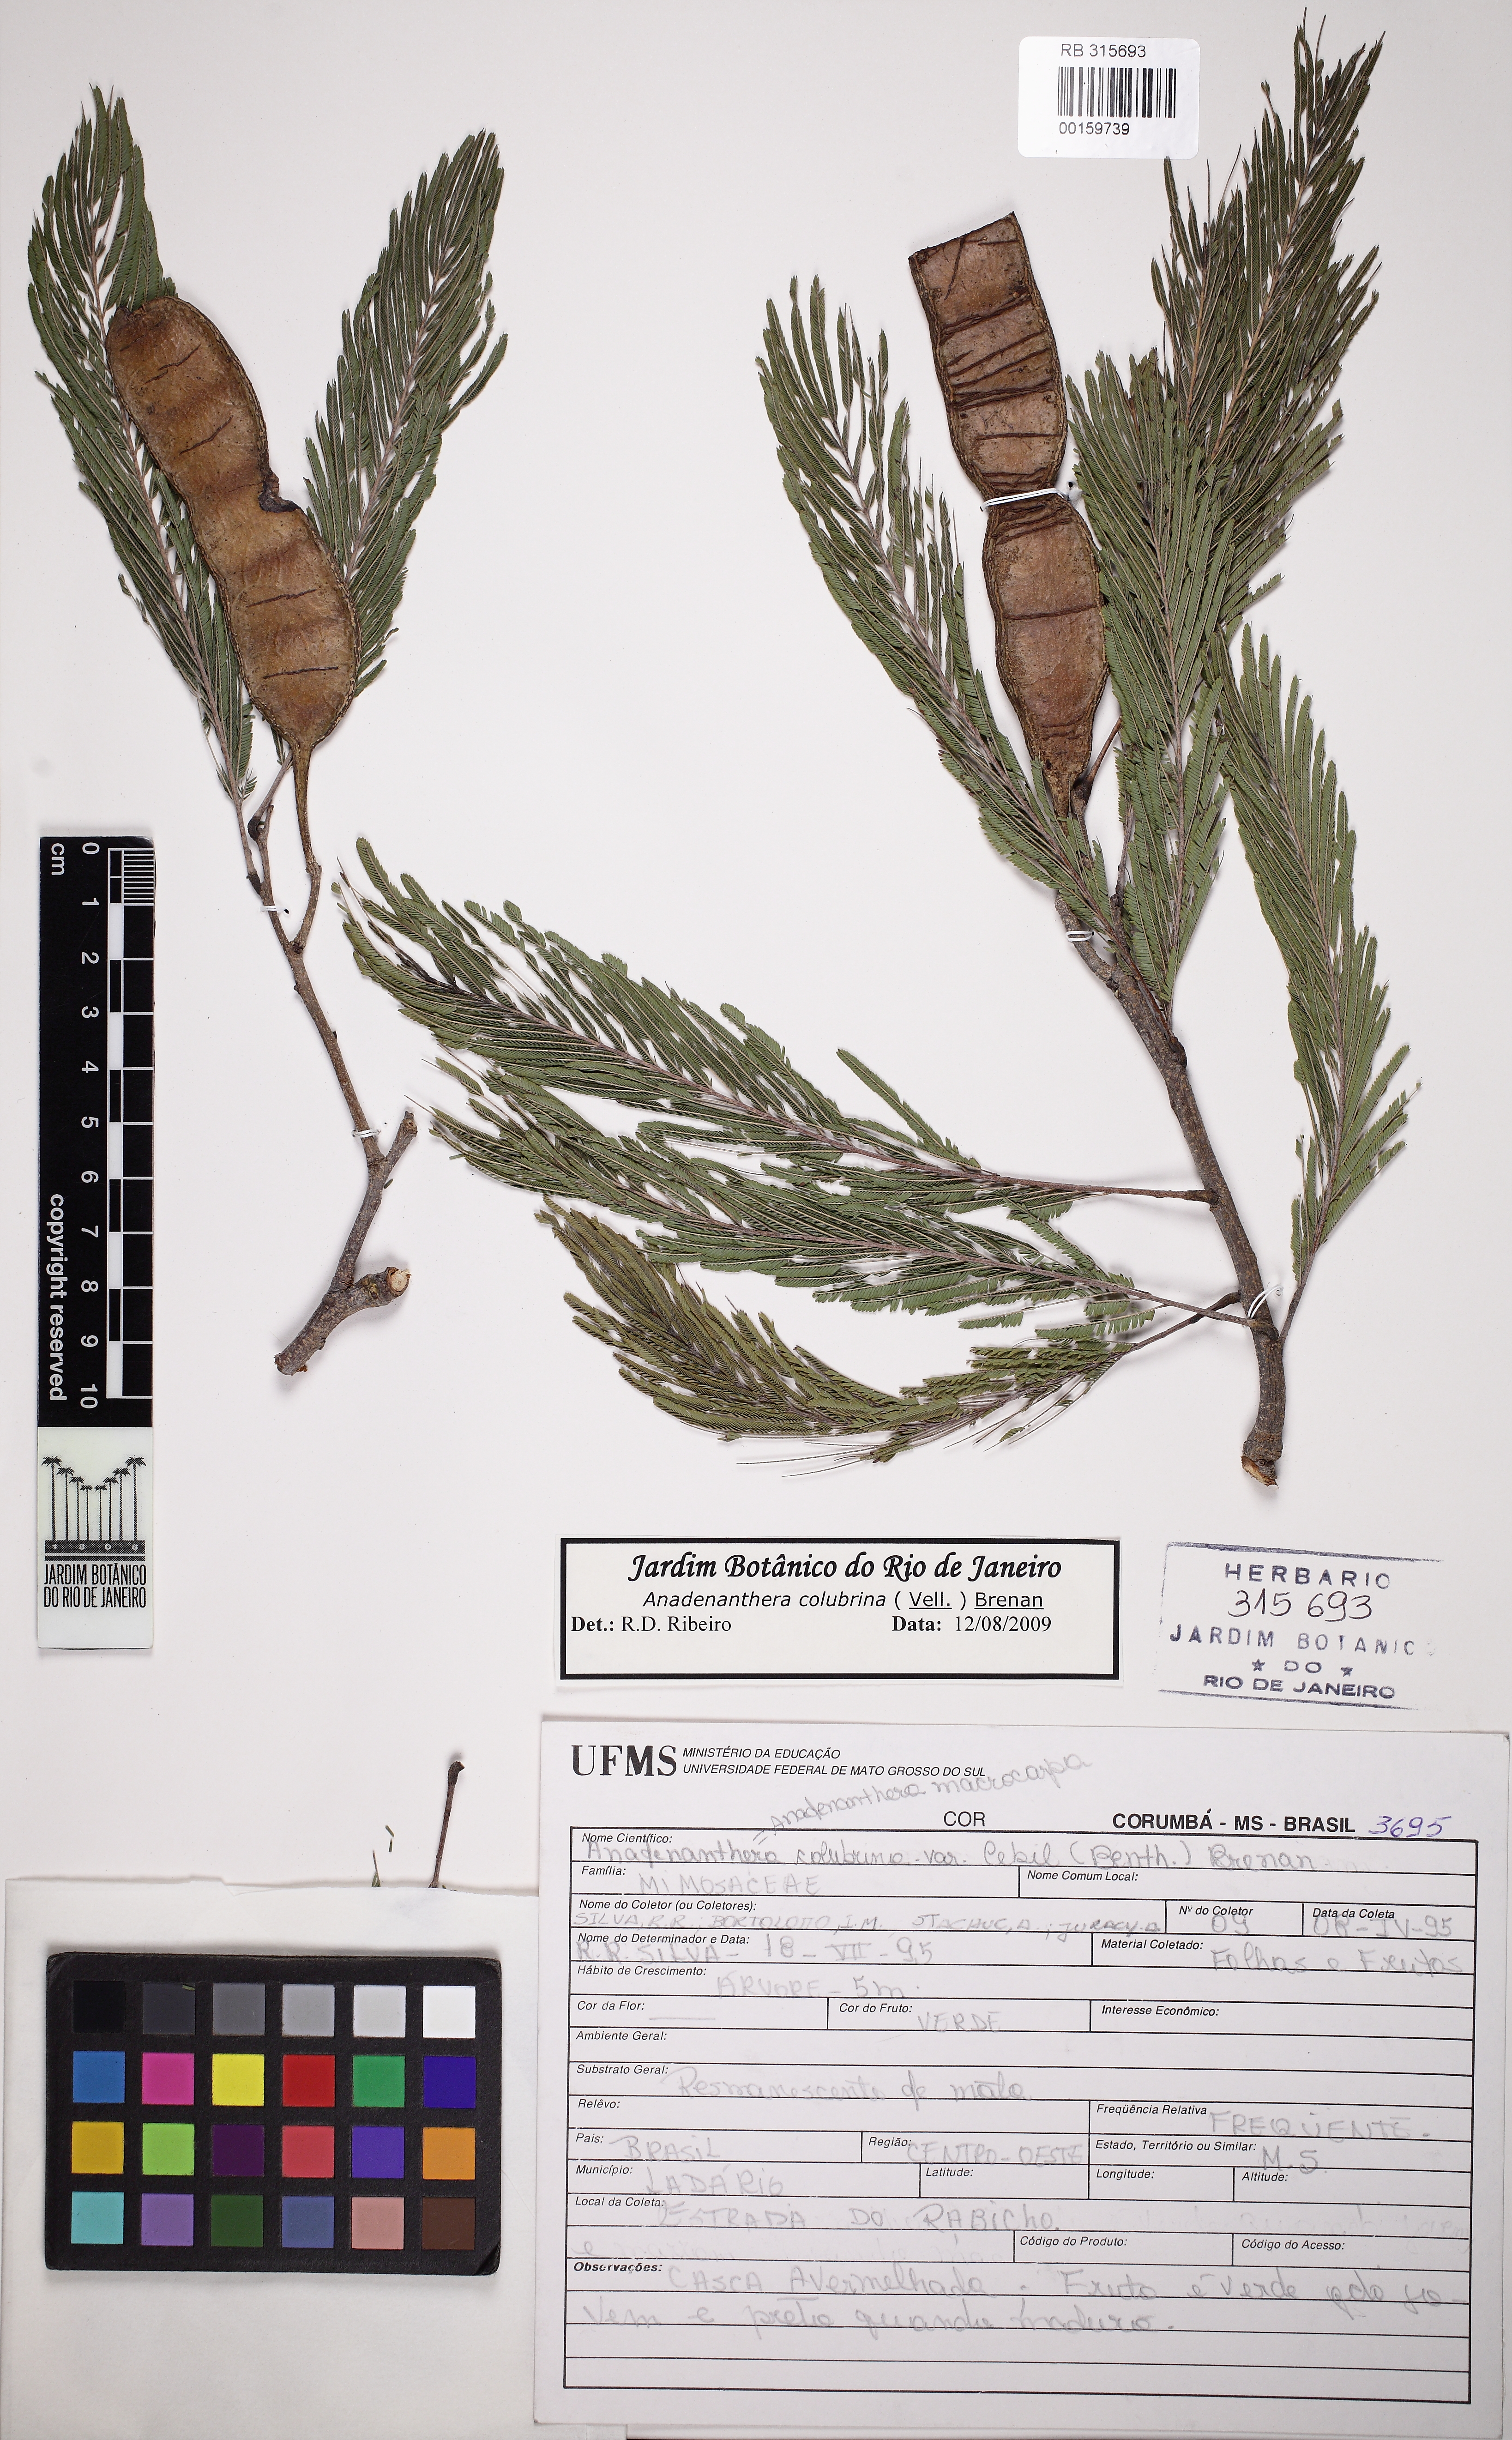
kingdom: Plantae
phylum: Tracheophyta
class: Magnoliopsida
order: Fabales
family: Fabaceae
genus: Anadenanthera
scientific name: Anadenanthera colubrina
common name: Curupay
